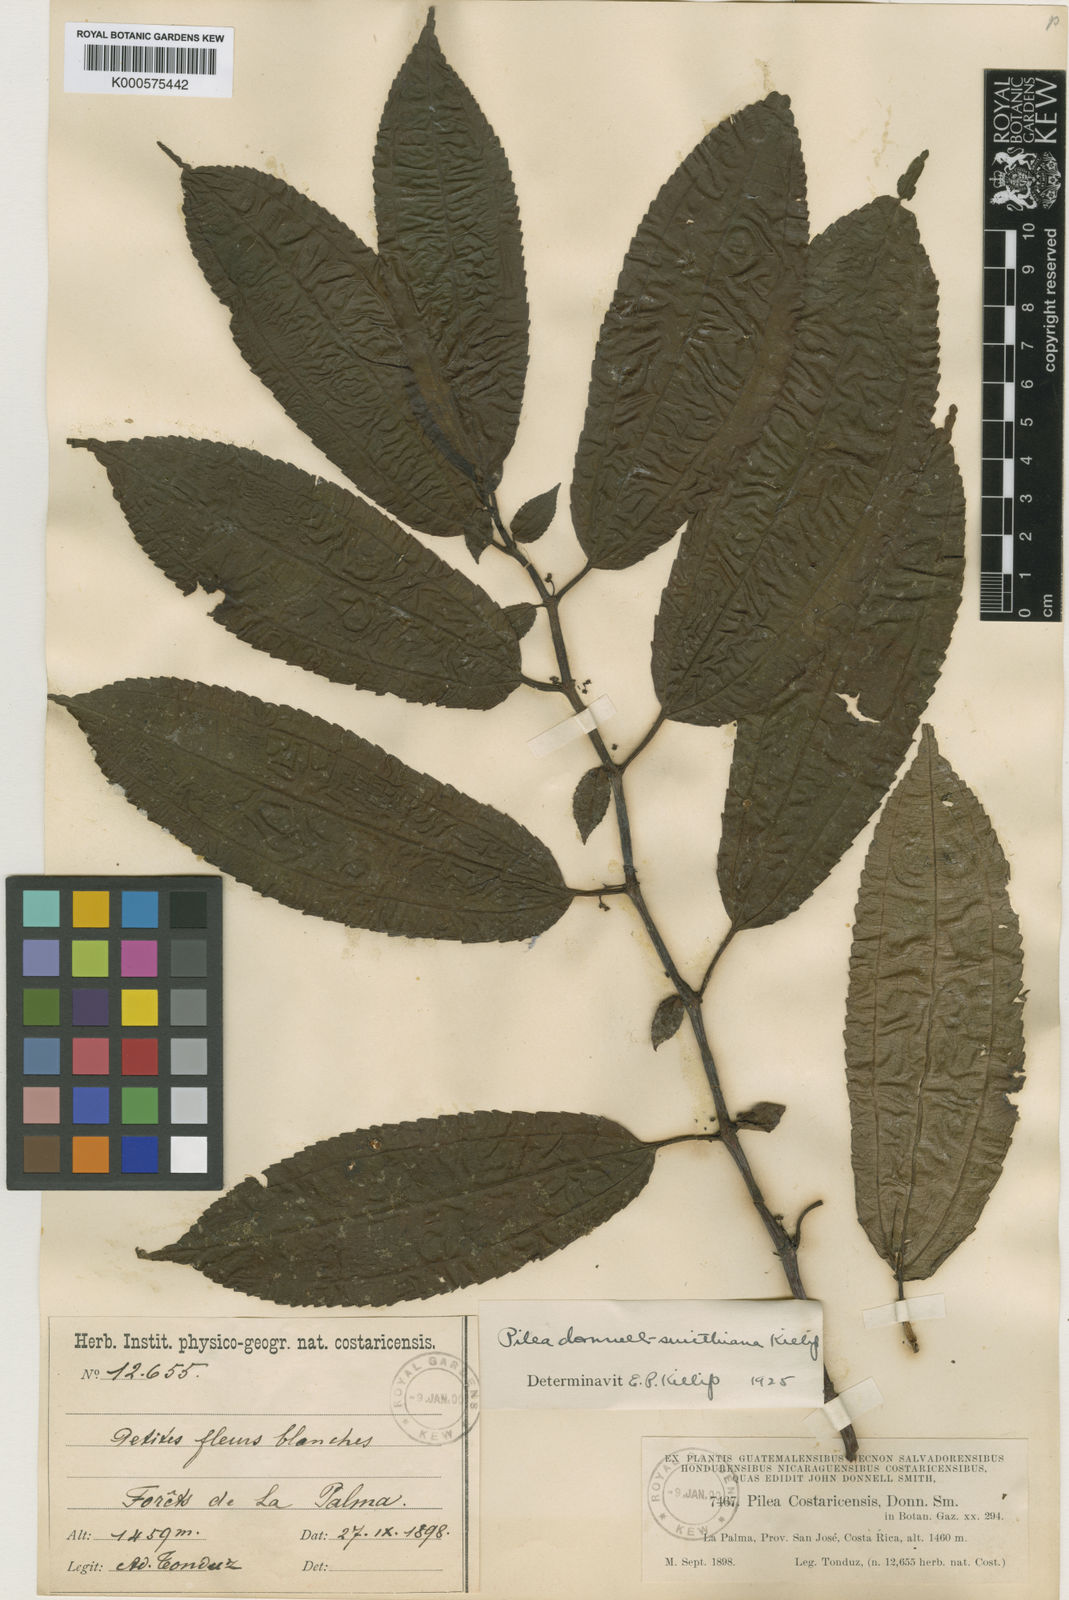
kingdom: Plantae
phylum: Tracheophyta
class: Magnoliopsida
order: Rosales
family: Urticaceae
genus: Pilea
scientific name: Pilea purulensis
